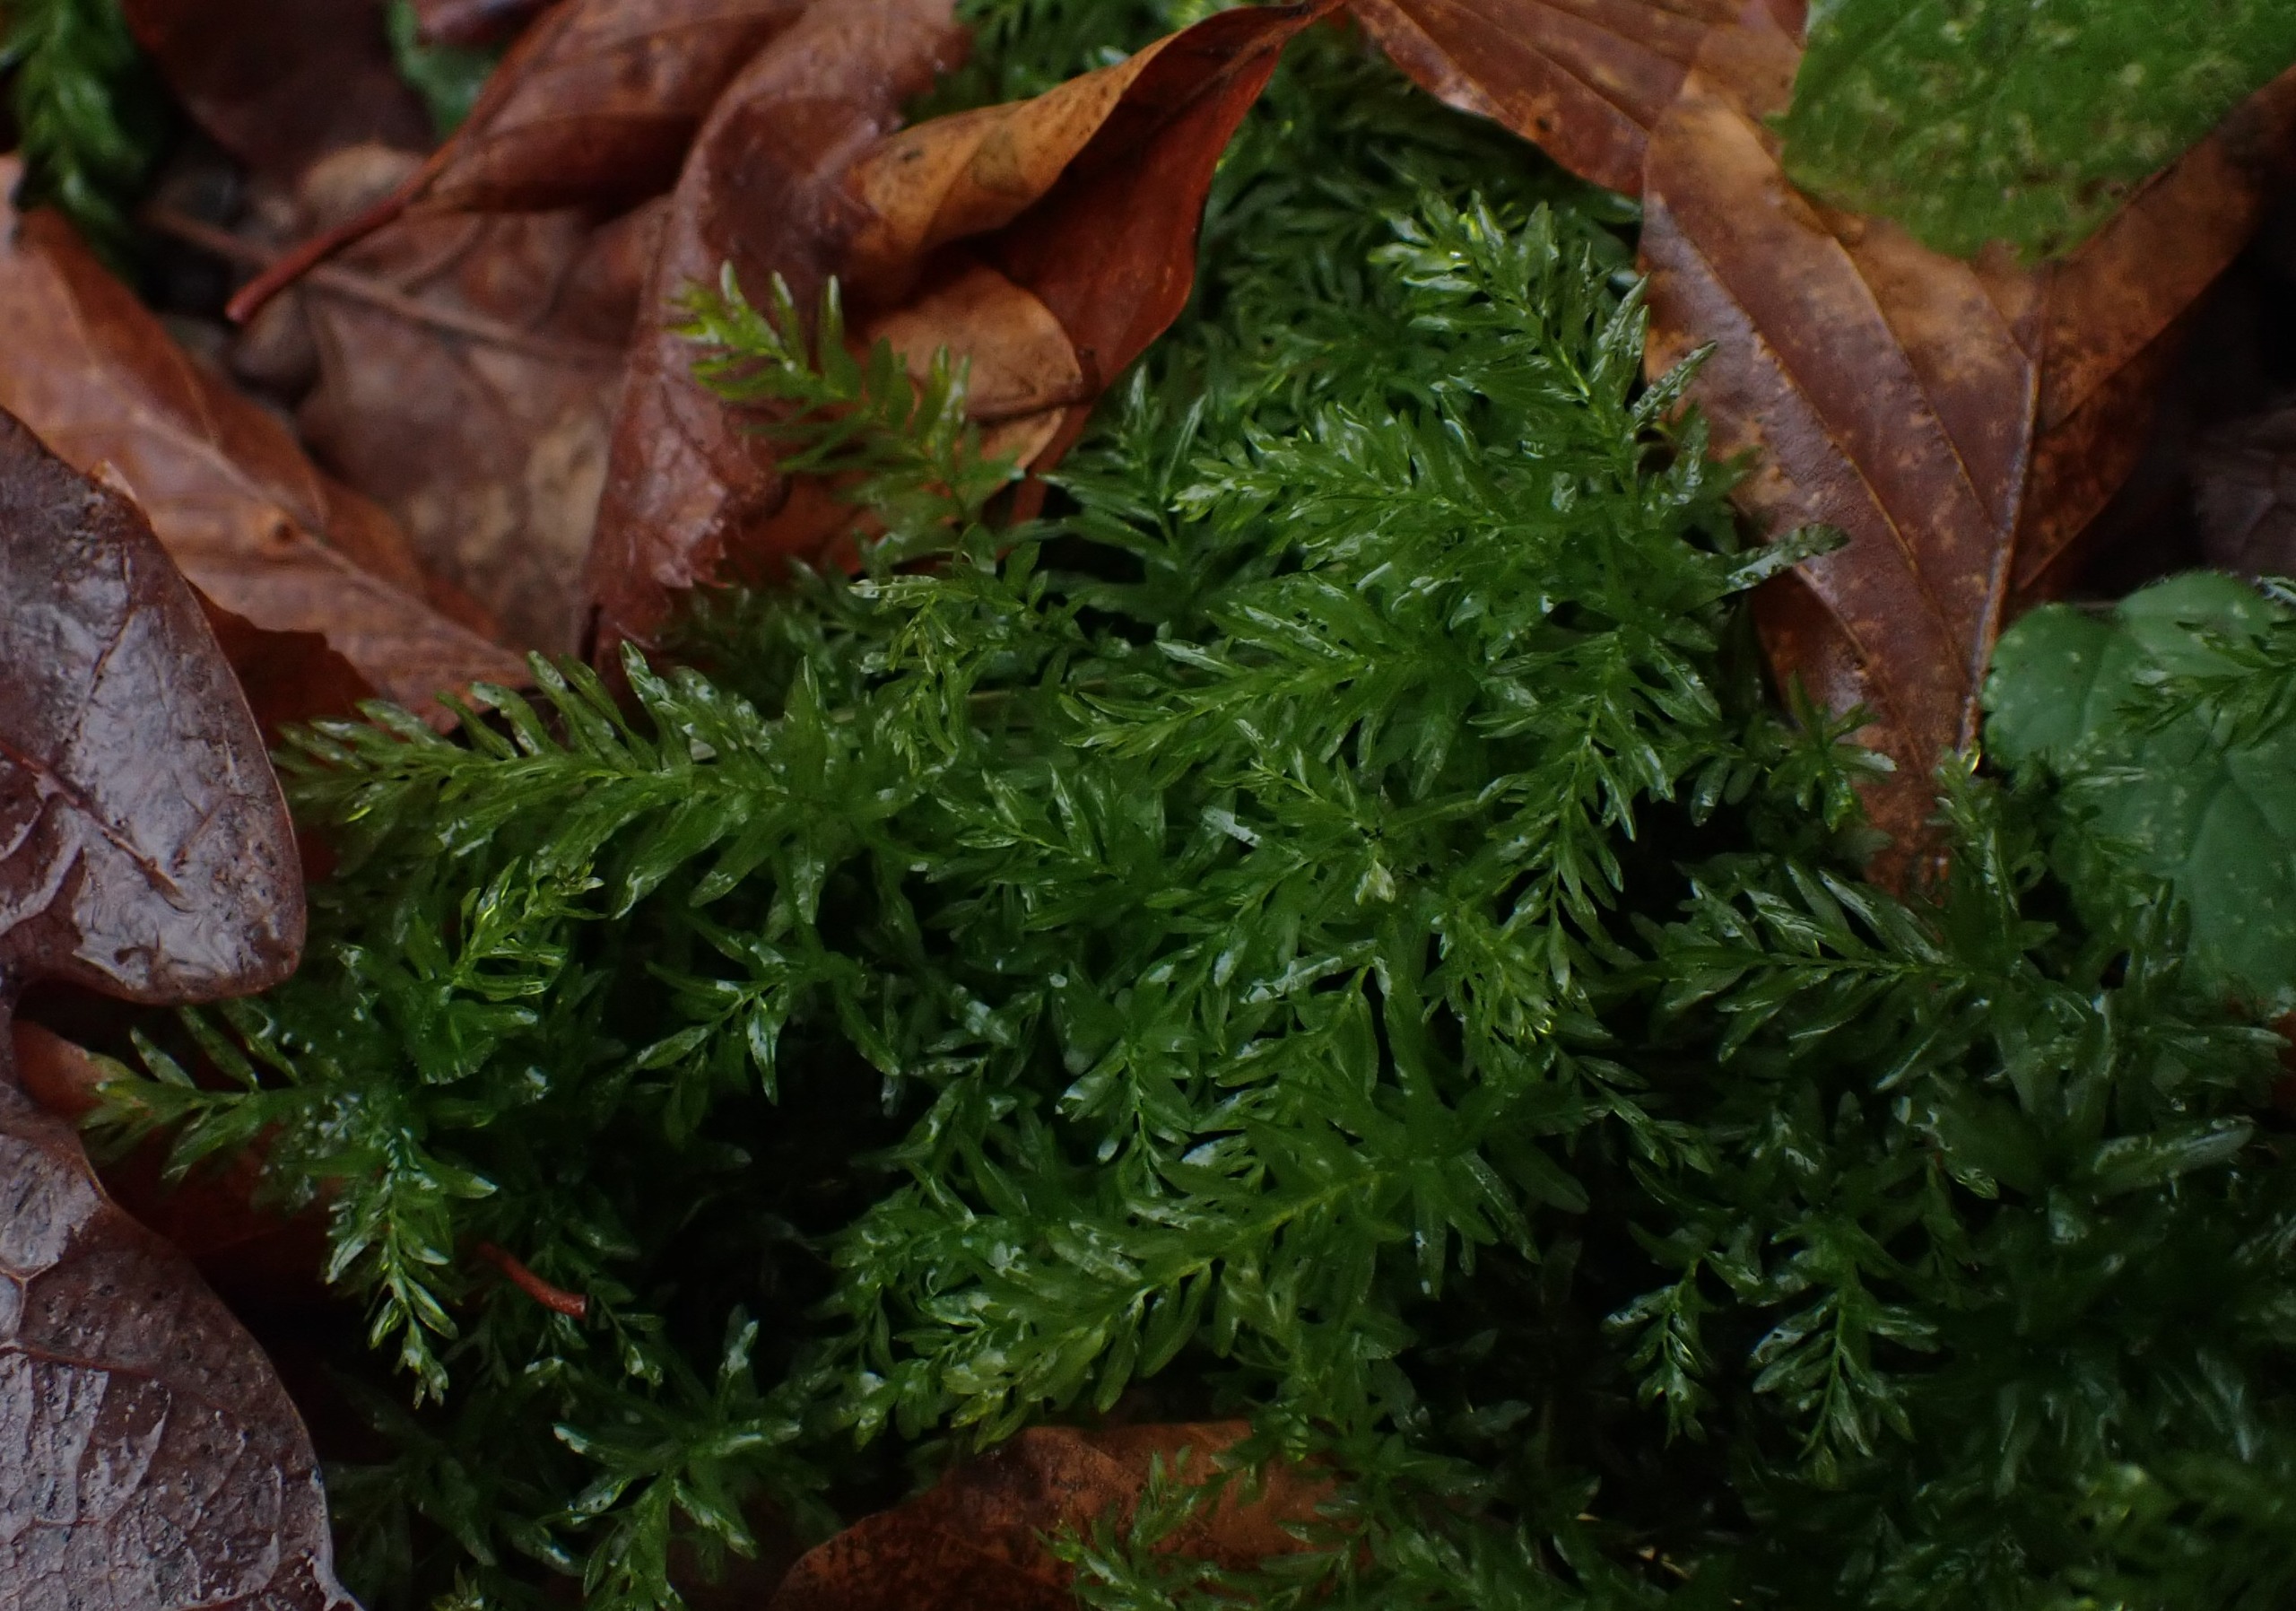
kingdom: Plantae
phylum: Bryophyta
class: Bryopsida
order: Bryales
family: Mniaceae
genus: Plagiomnium
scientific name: Plagiomnium undulatum
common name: Bølget krybstjerne
